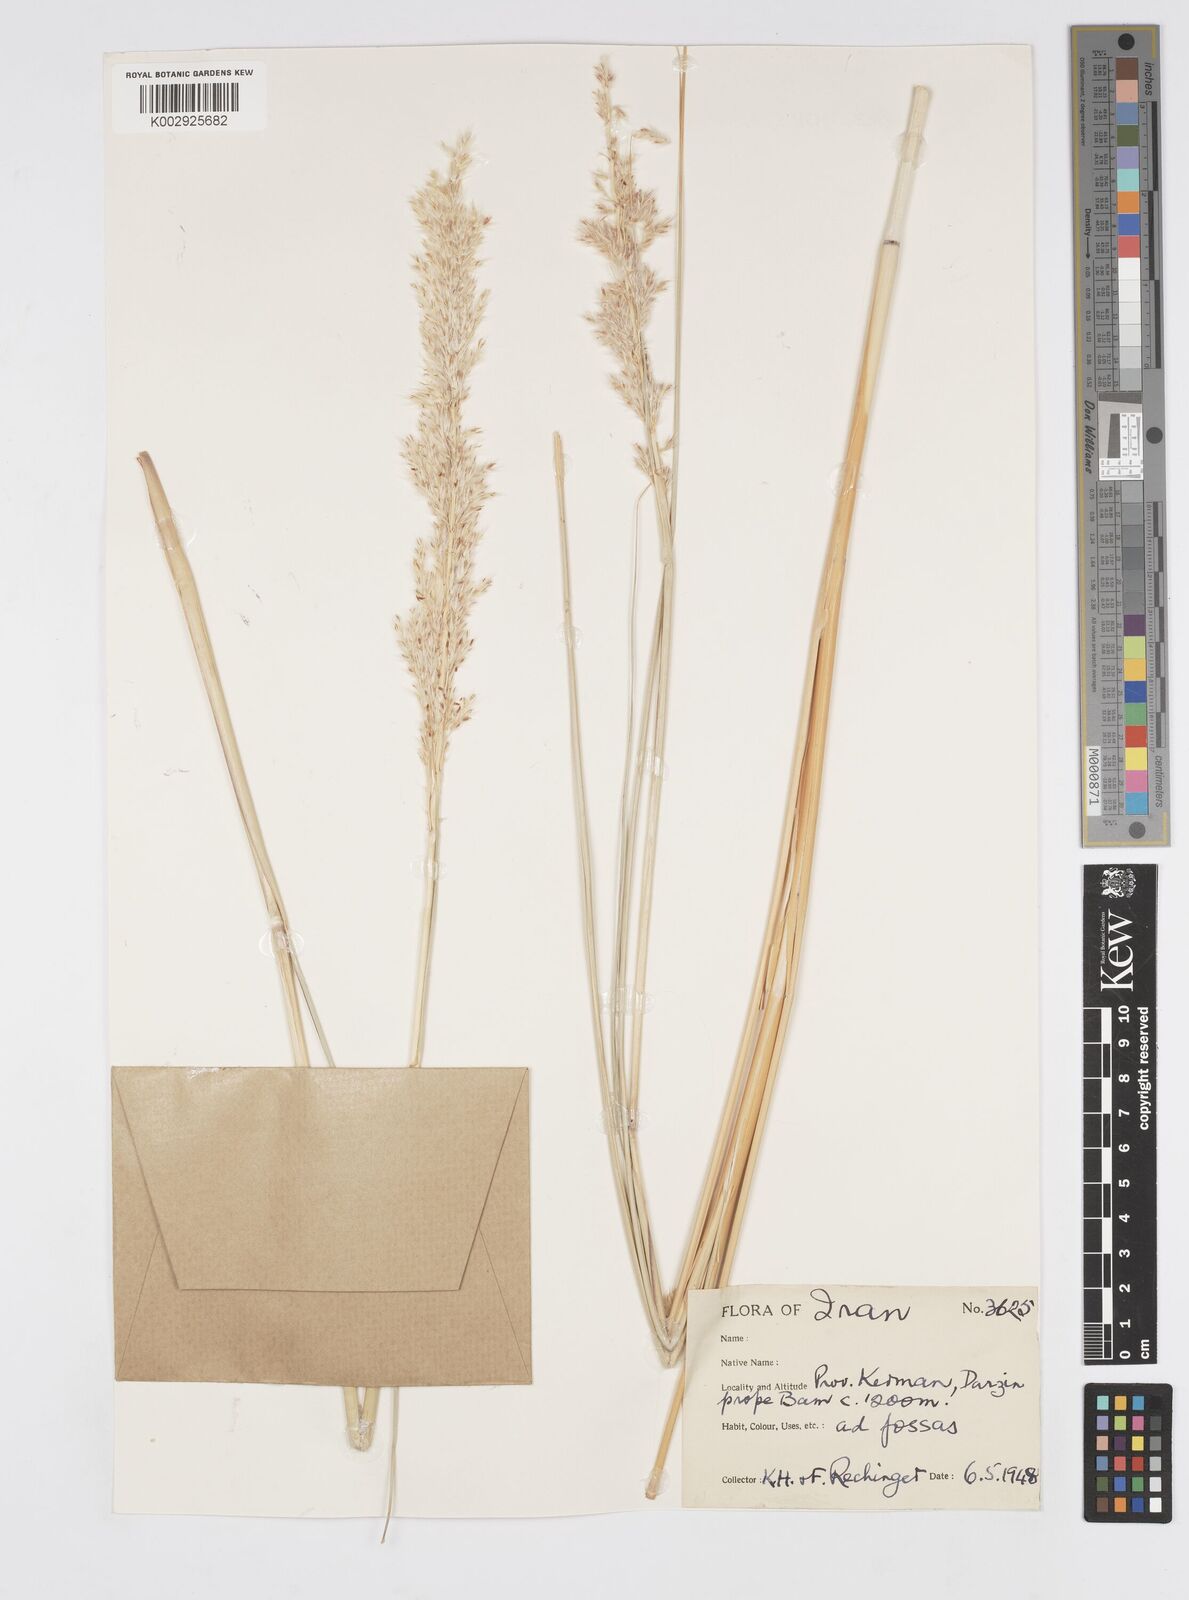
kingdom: Plantae
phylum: Tracheophyta
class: Liliopsida
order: Poales
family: Poaceae
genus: Saccharum
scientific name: Saccharum kajkaiense
